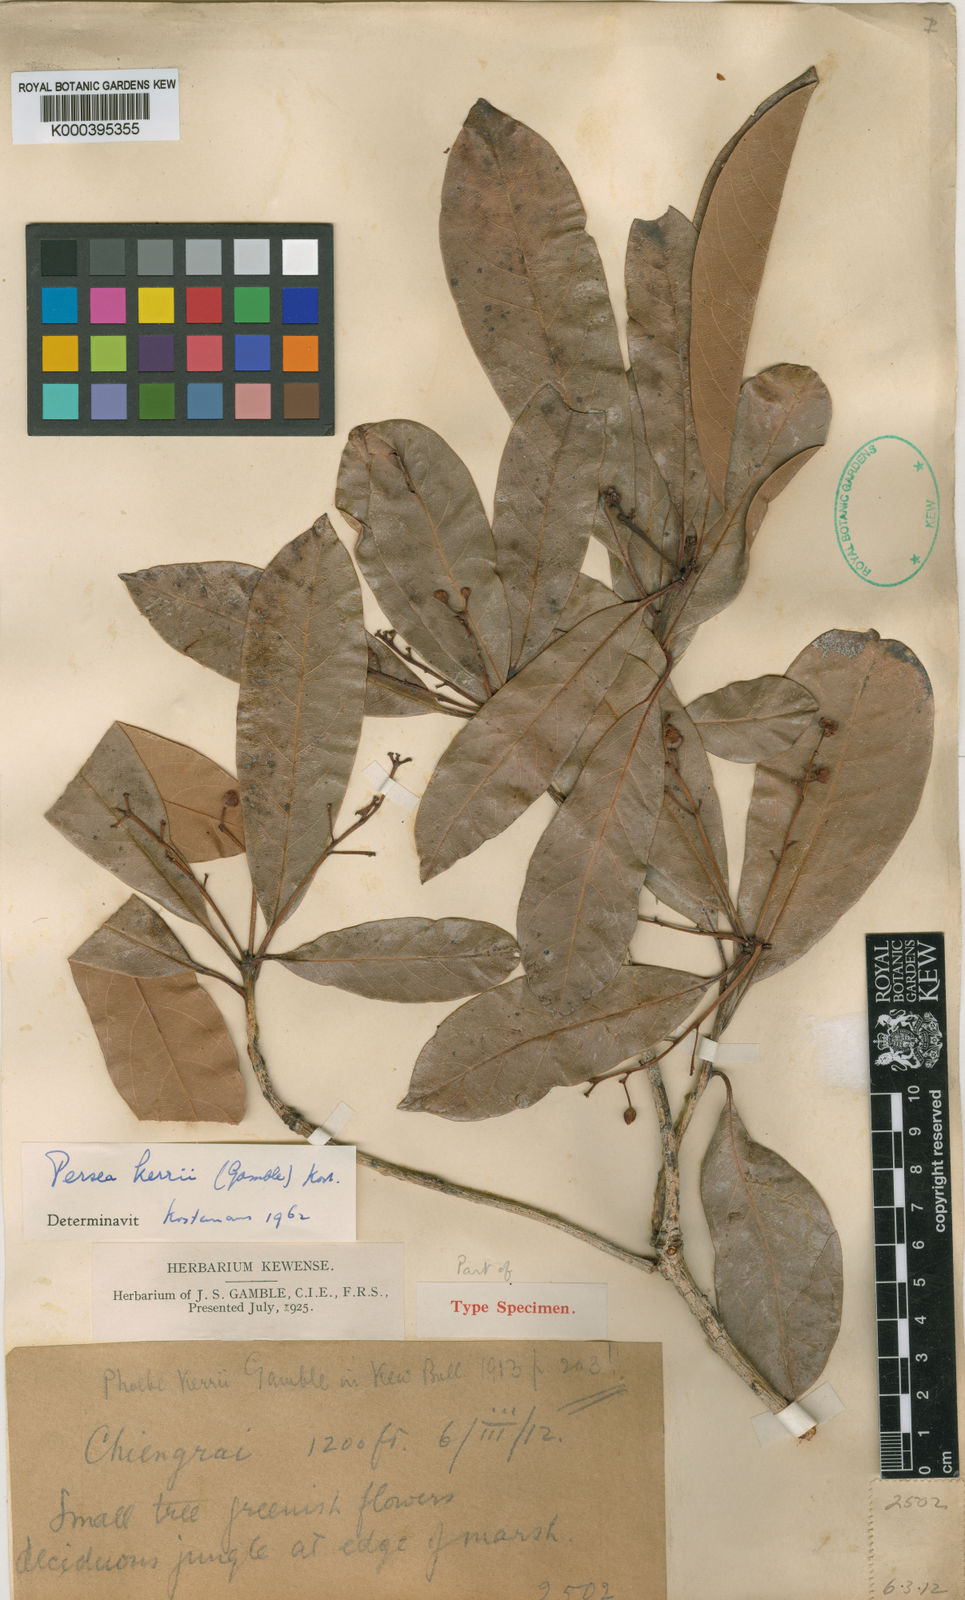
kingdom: Plantae
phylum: Tracheophyta
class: Magnoliopsida
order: Laurales
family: Lauraceae
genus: Persea
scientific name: Persea
